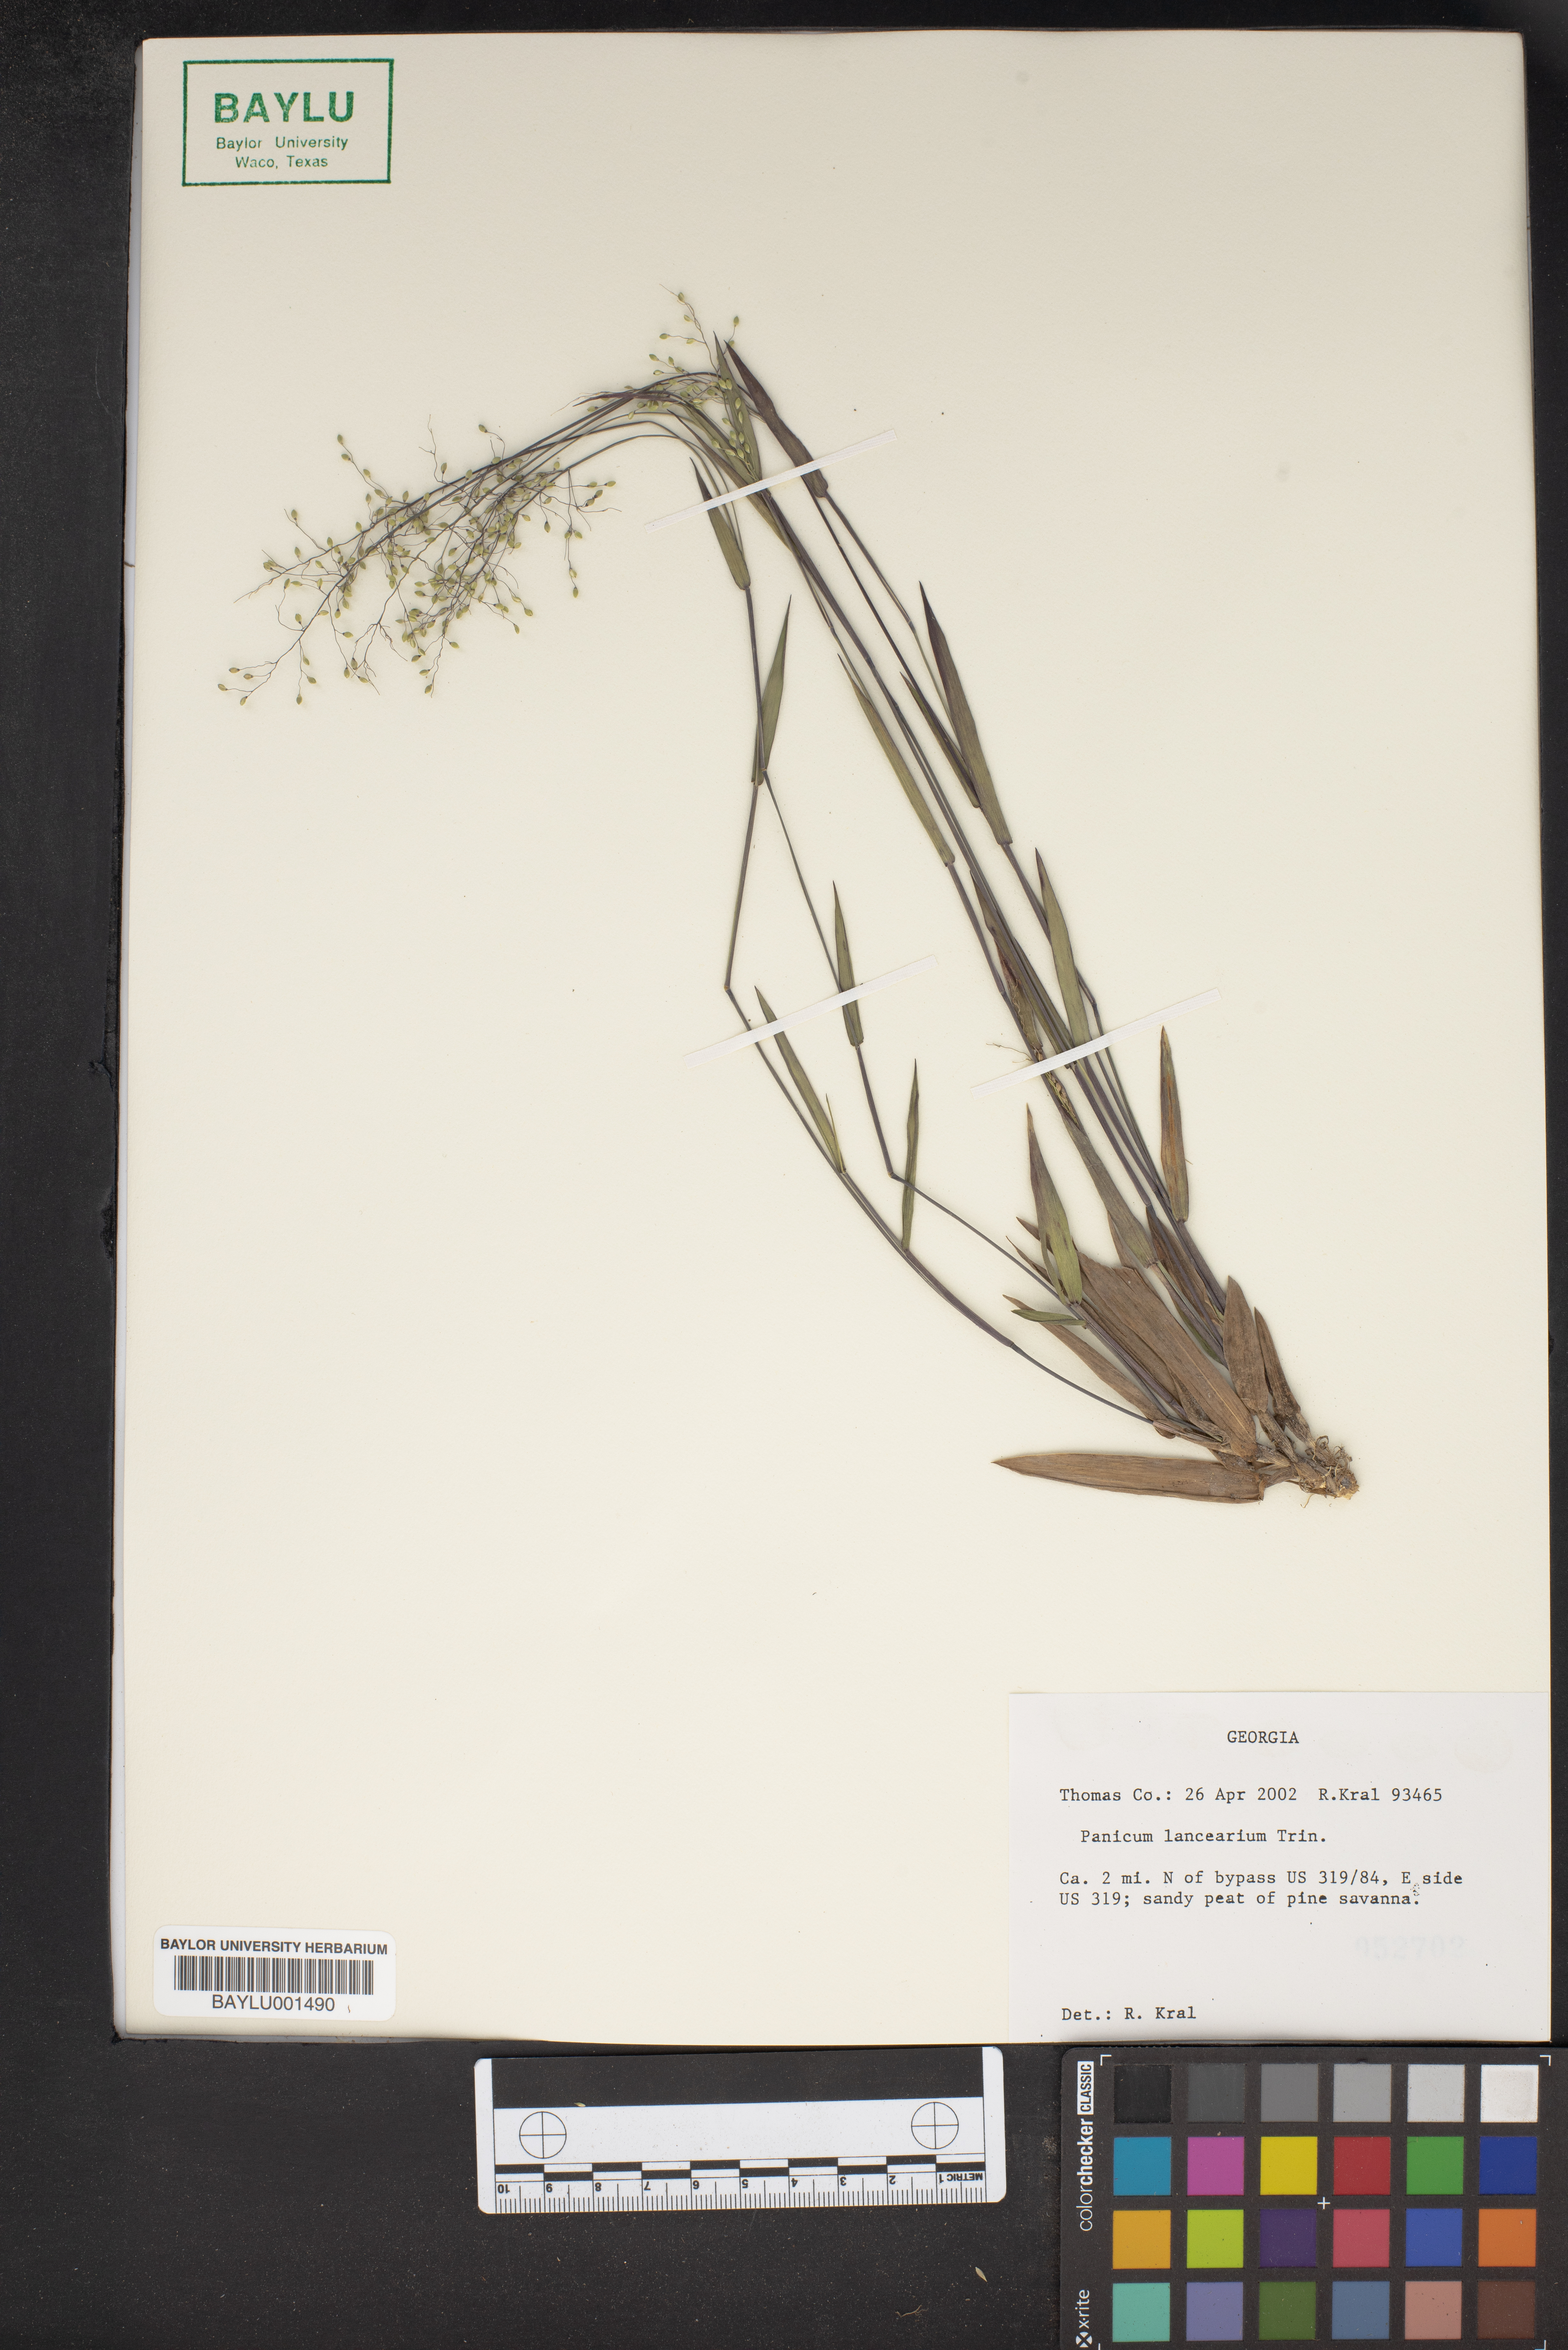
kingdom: Plantae
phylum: Tracheophyta
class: Liliopsida
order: Poales
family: Poaceae
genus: Dichanthelium
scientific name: Dichanthelium portoricense
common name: American panicgrass
